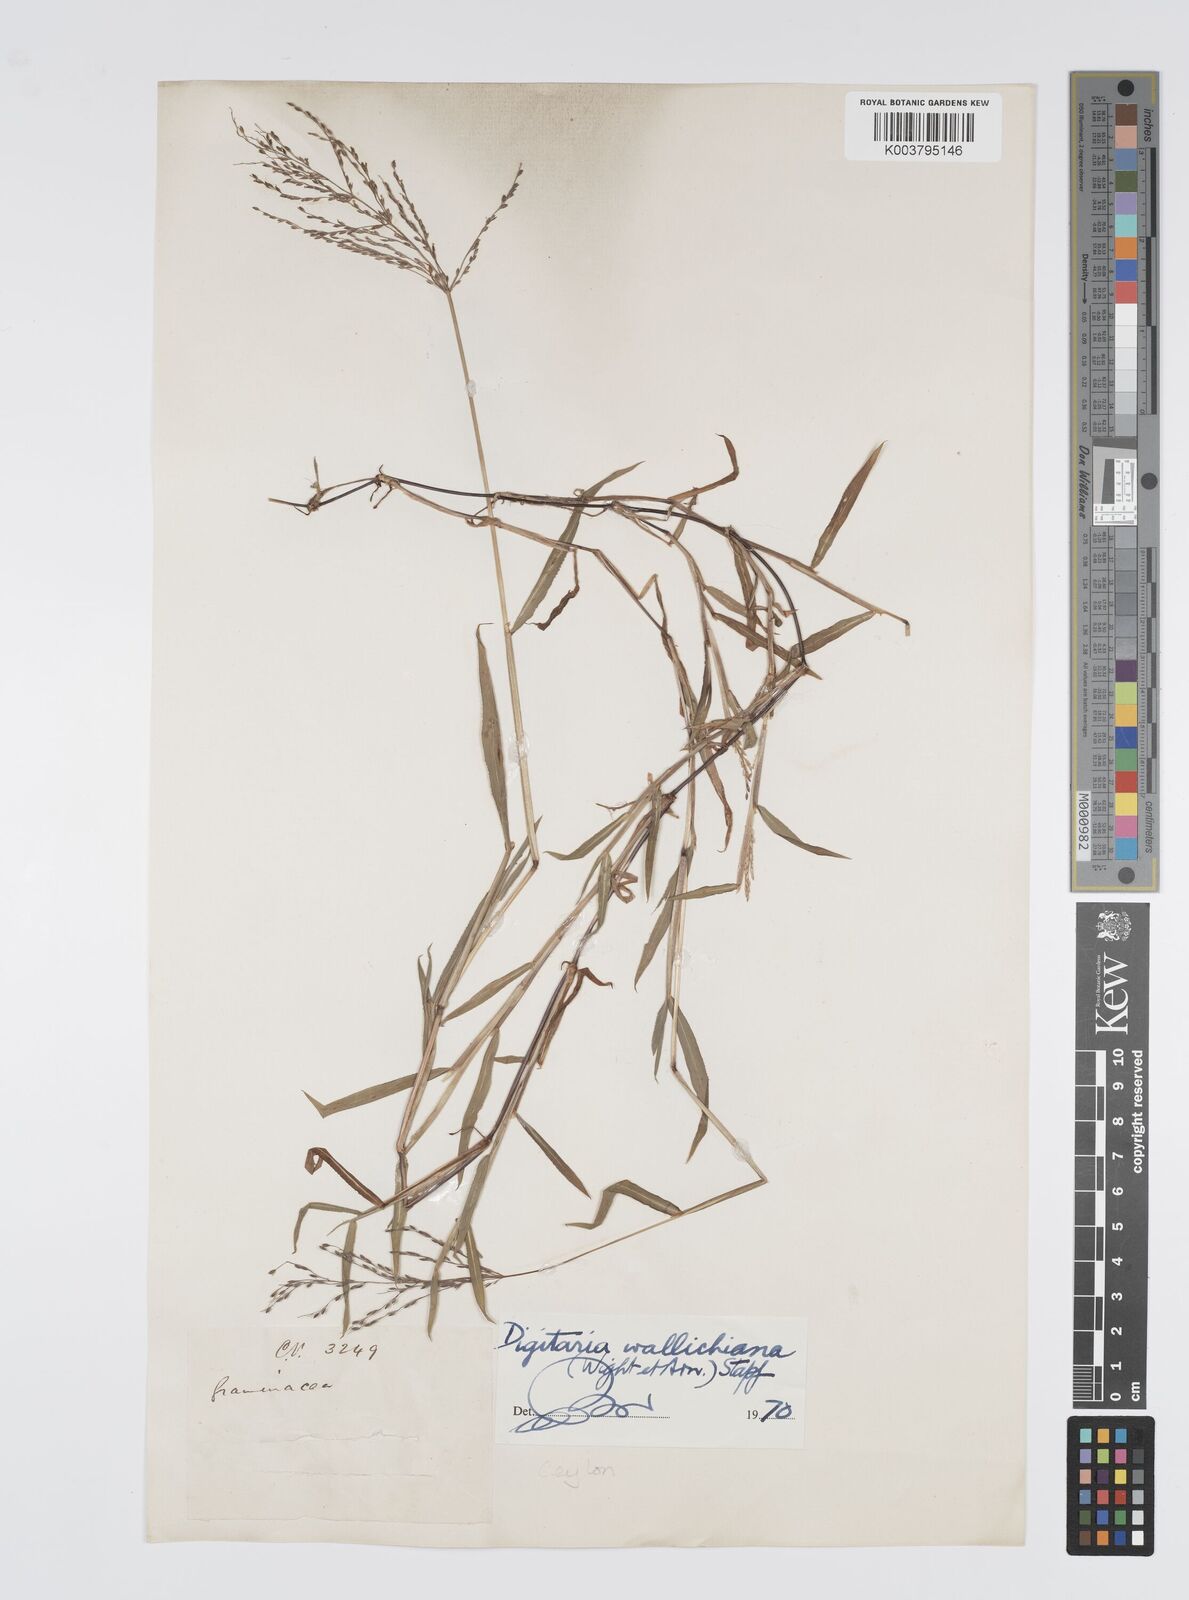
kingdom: Plantae
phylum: Tracheophyta
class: Liliopsida
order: Poales
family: Poaceae
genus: Digitaria
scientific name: Digitaria wallichiana
